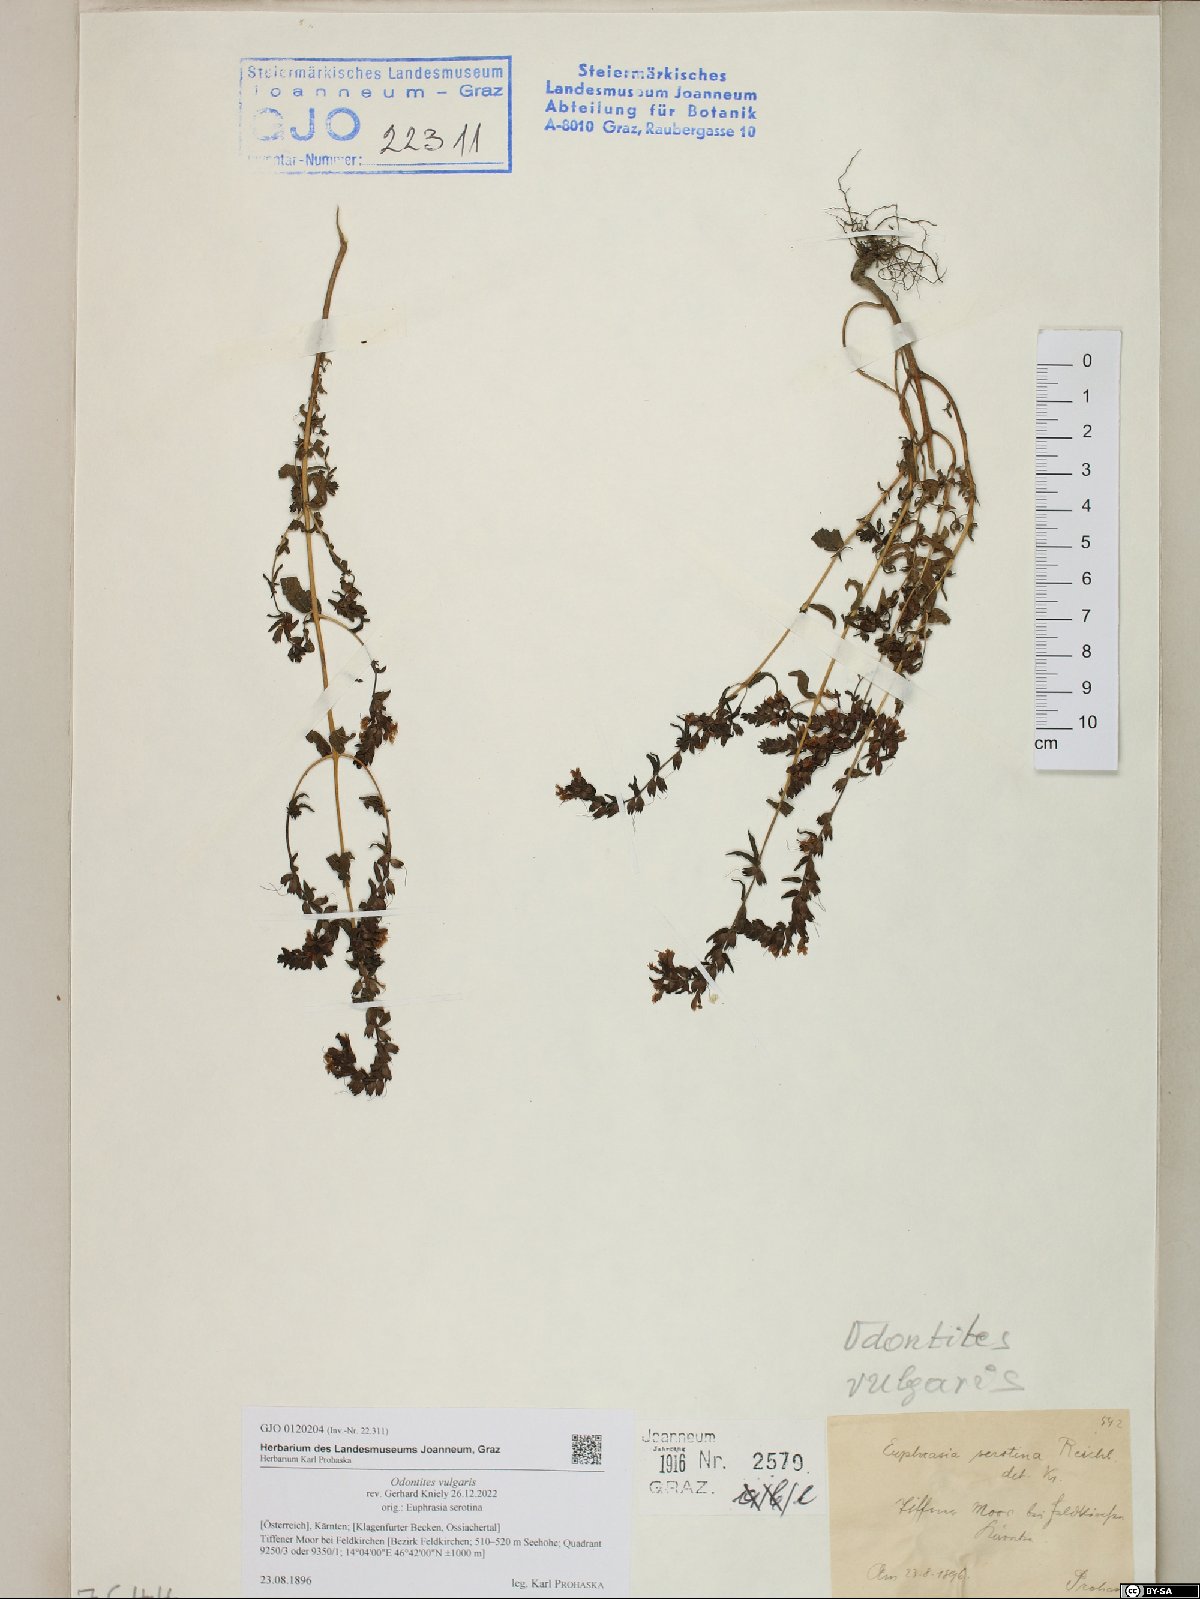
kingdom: Plantae
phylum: Tracheophyta
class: Magnoliopsida
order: Lamiales
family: Orobanchaceae
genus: Odontites
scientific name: Odontites vulgaris
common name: Broomrape
